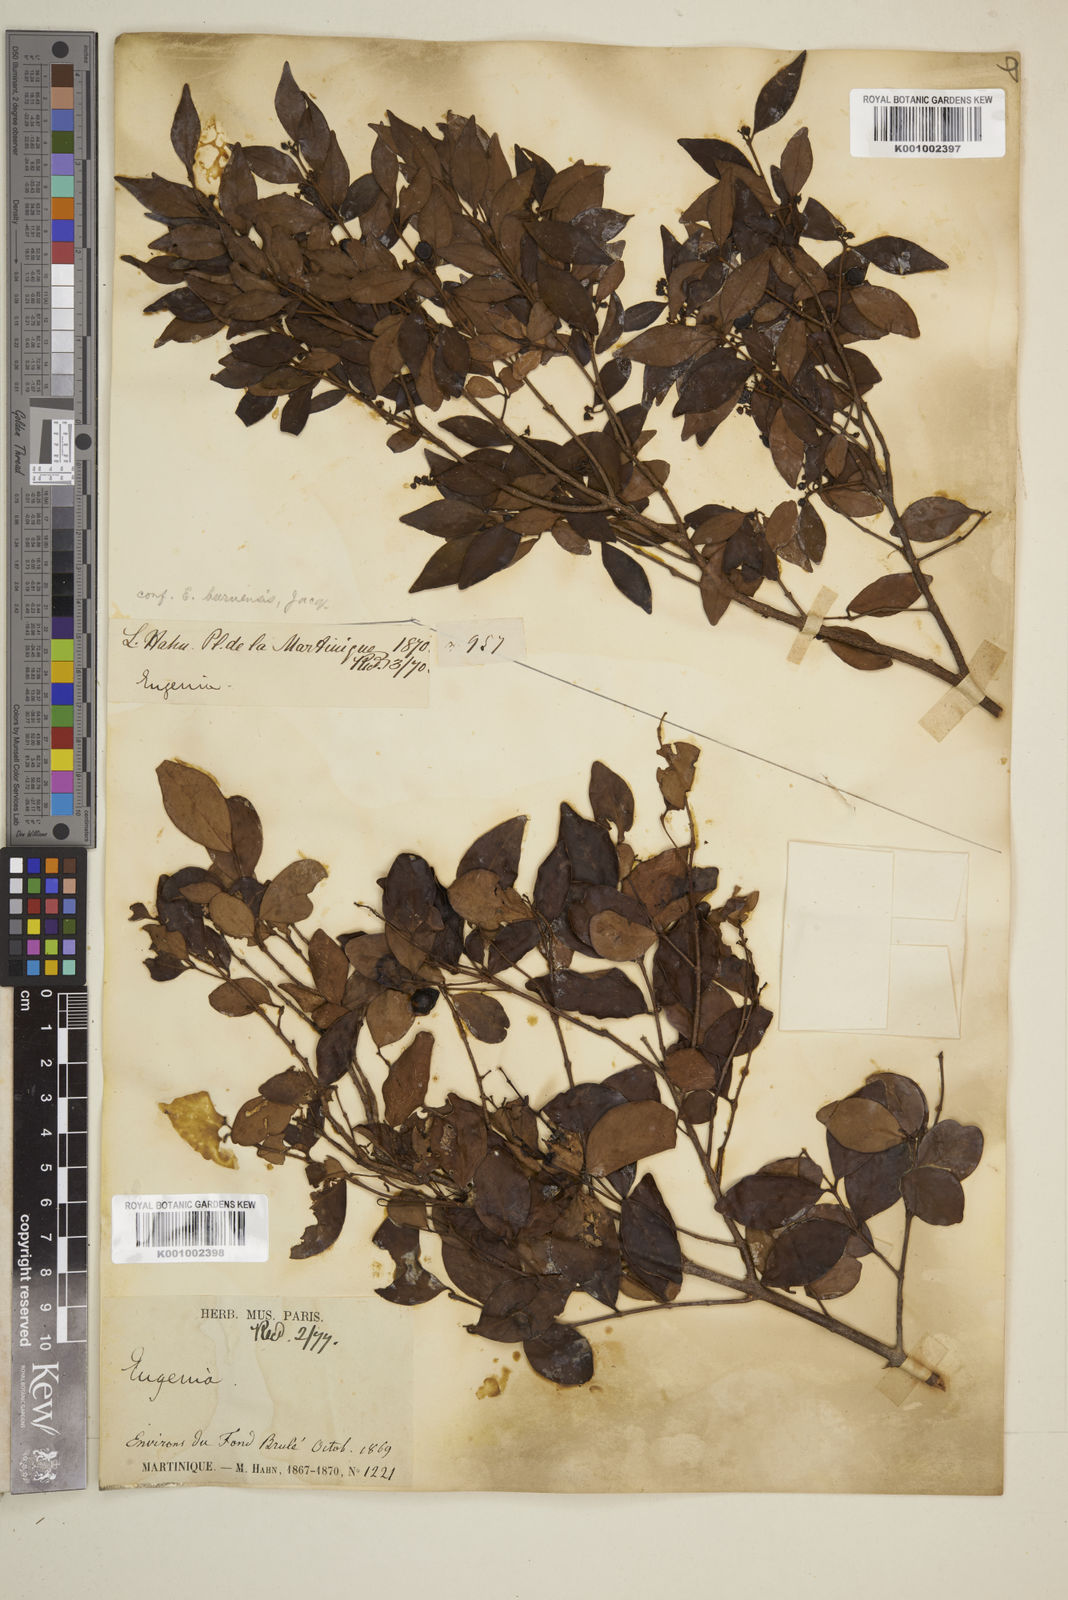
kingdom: Plantae
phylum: Tracheophyta
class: Magnoliopsida
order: Myrtales
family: Myrtaceae
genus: Eugenia
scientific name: Eugenia acapulcensis
